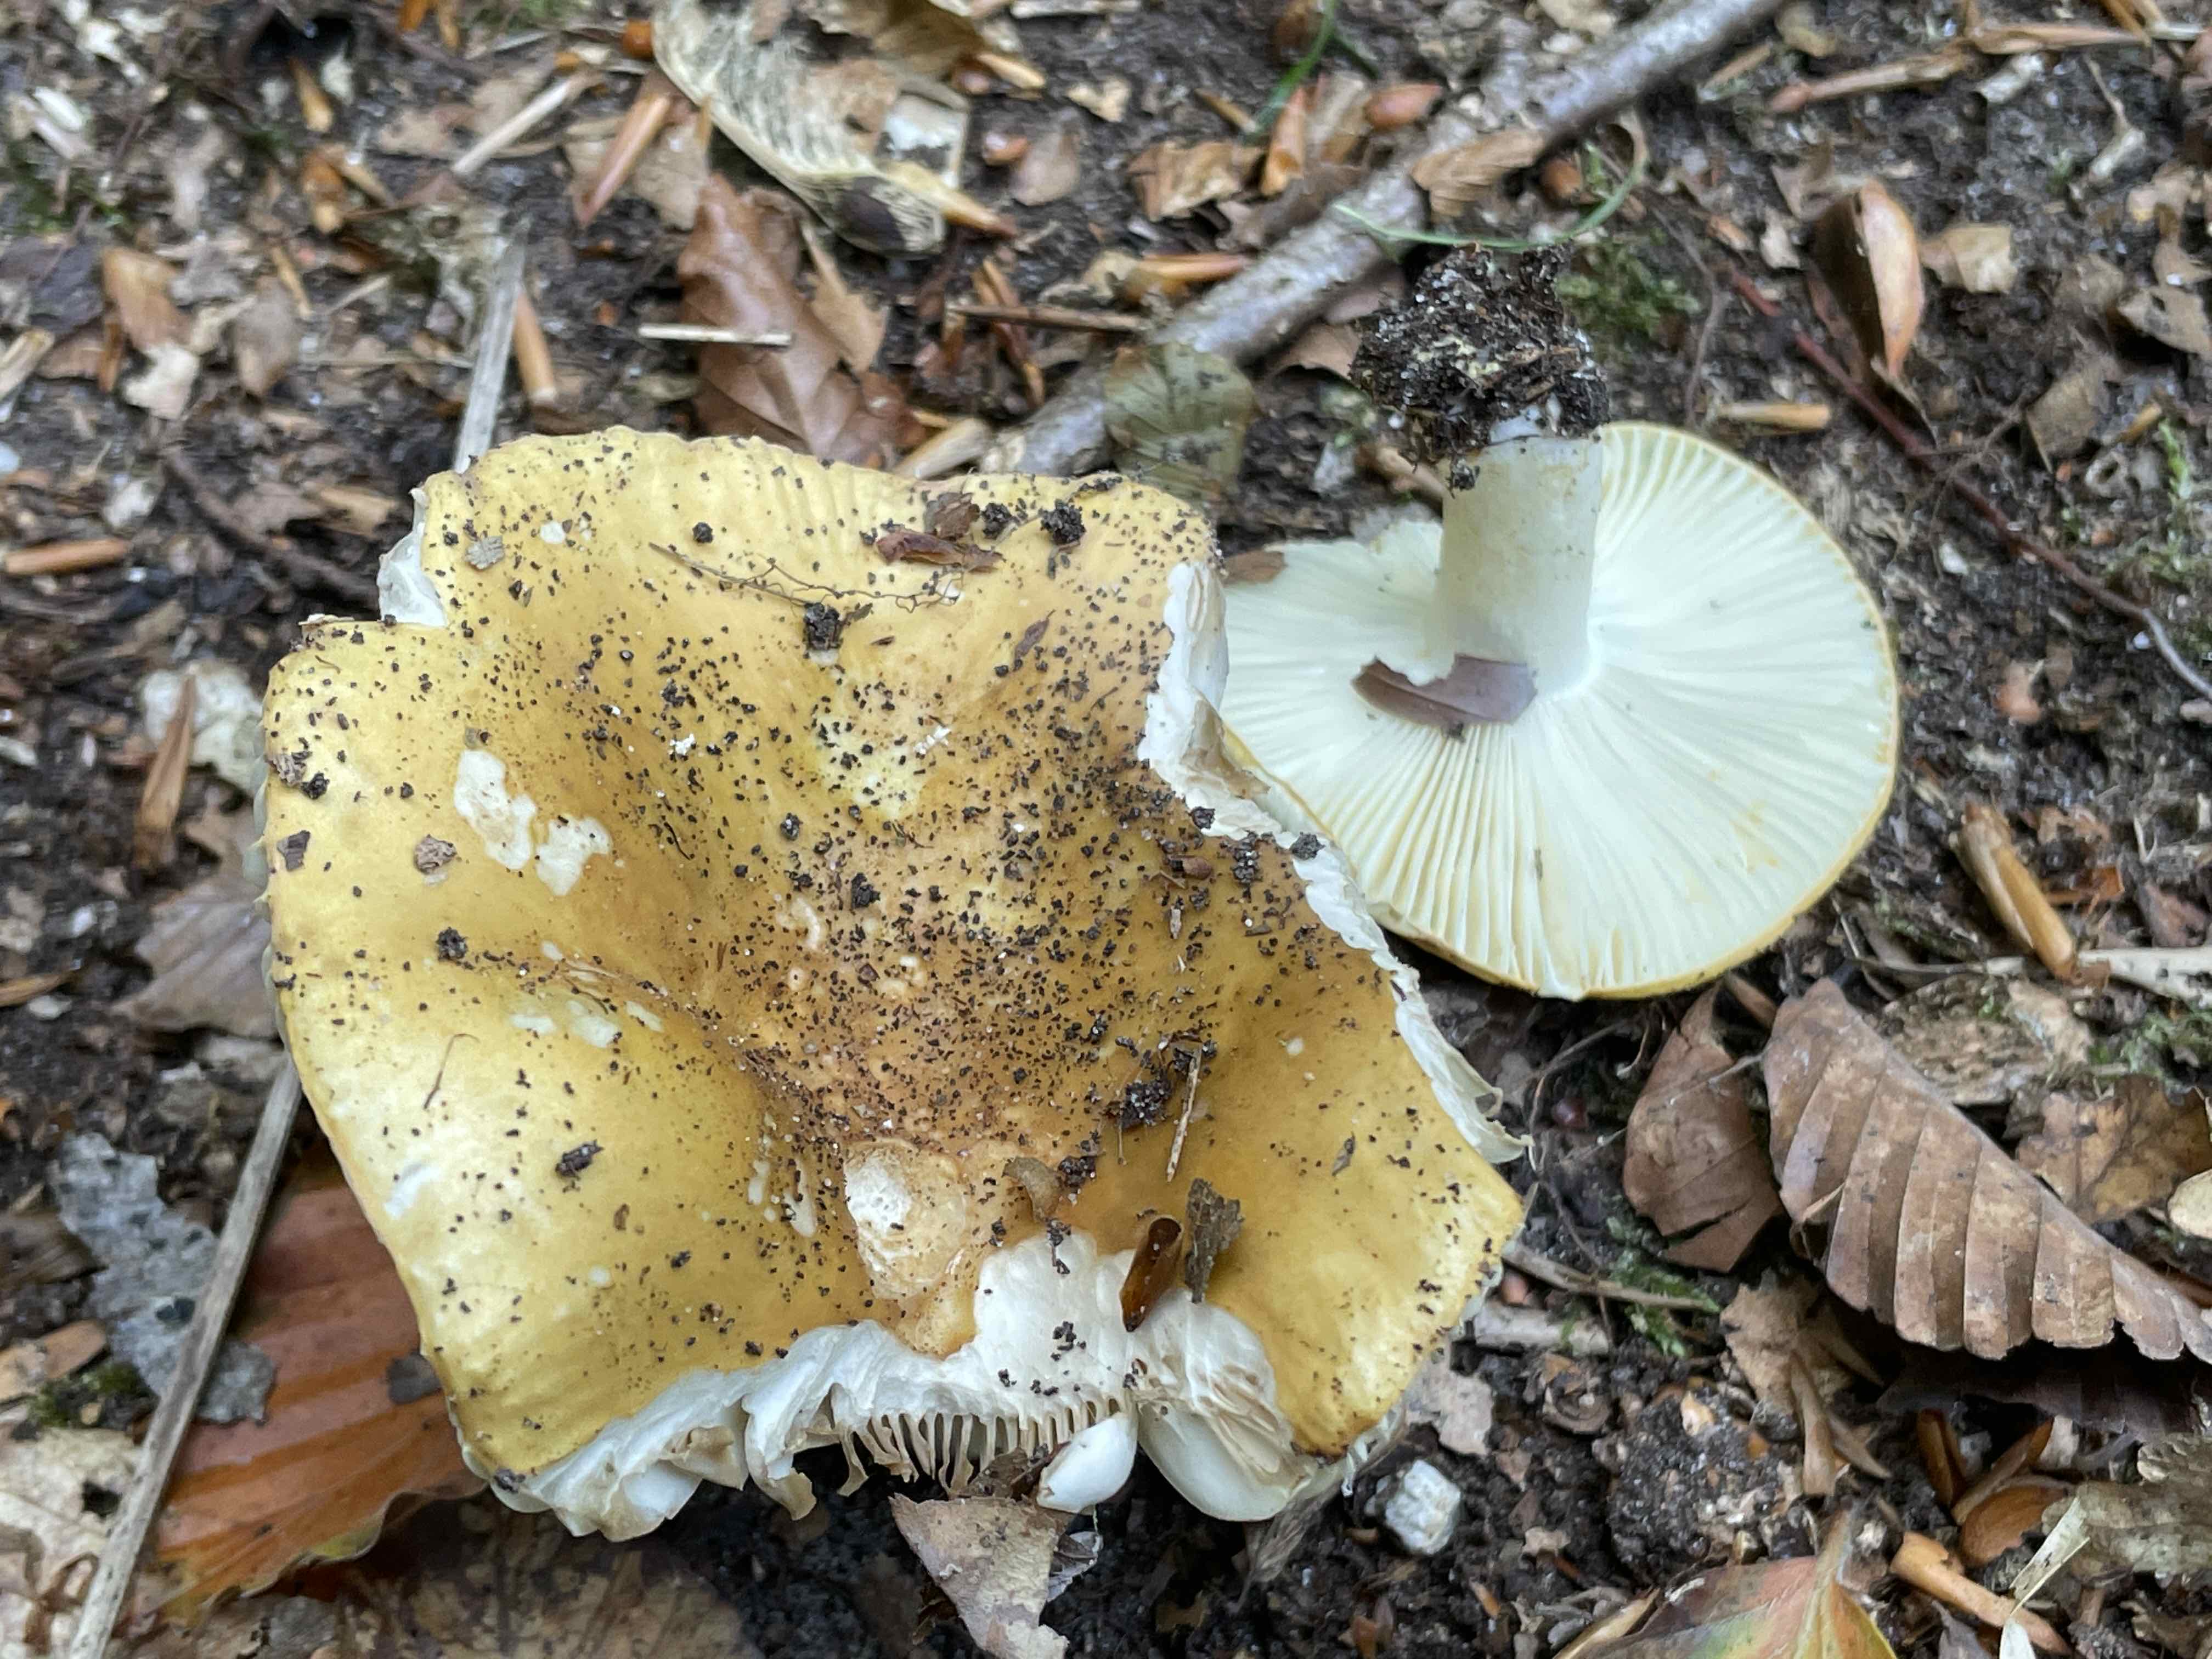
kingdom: Fungi
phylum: Basidiomycota
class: Agaricomycetes
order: Russulales
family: Russulaceae
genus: Russula
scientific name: Russula ochroleuca
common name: okkergul skørhat
